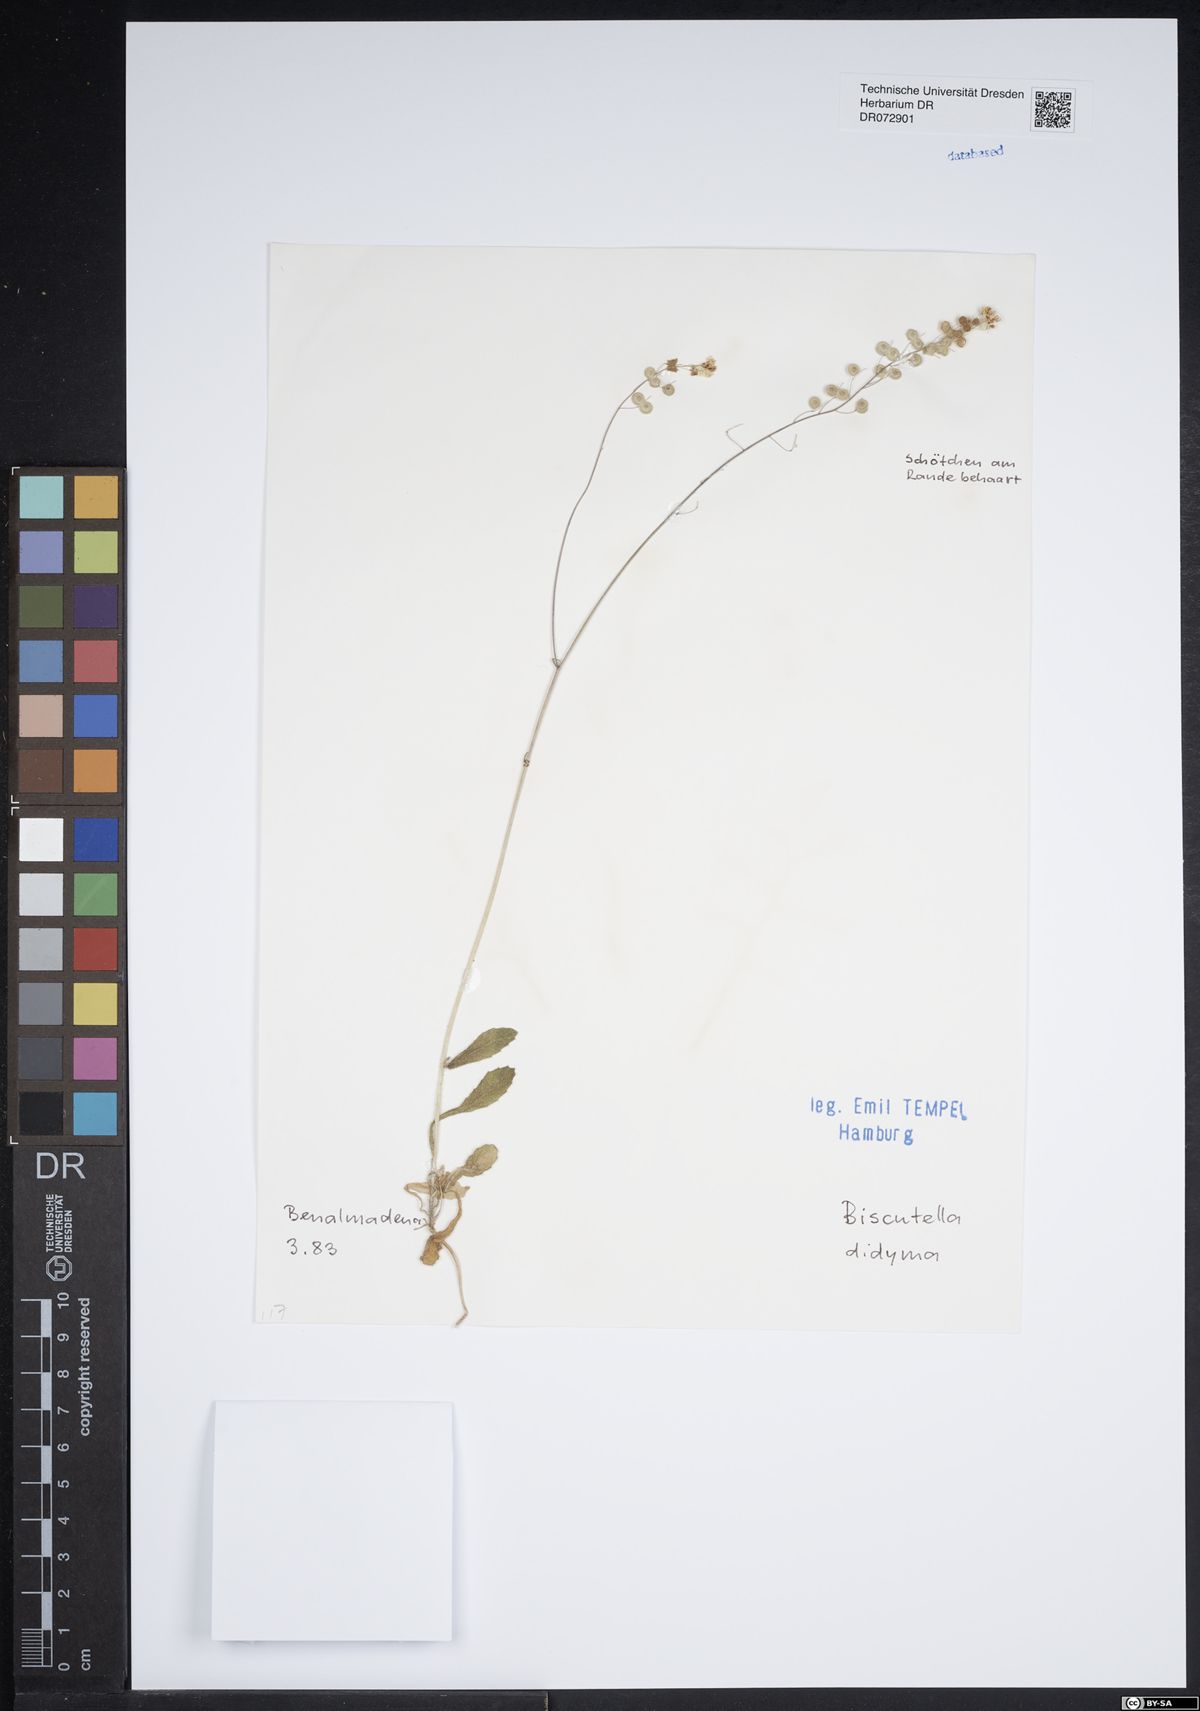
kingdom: Plantae
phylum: Tracheophyta
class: Magnoliopsida
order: Brassicales
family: Brassicaceae
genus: Biscutella
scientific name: Biscutella didyma
